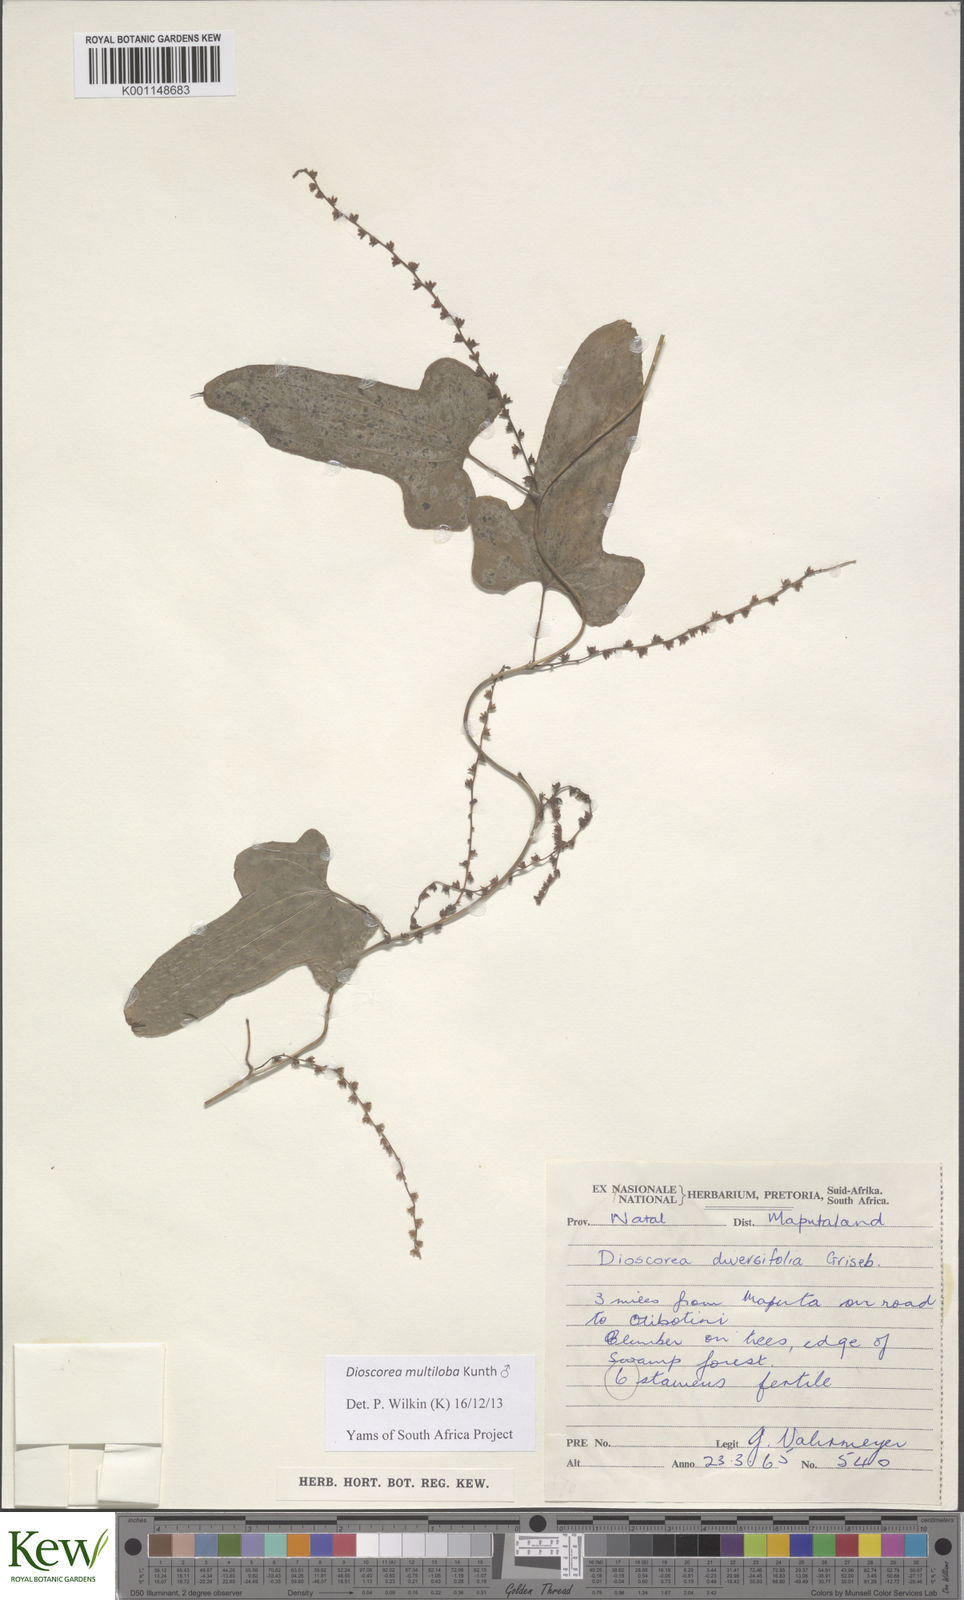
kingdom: Plantae
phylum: Tracheophyta
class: Liliopsida
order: Dioscoreales
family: Dioscoreaceae
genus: Dioscorea
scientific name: Dioscorea multiloba
